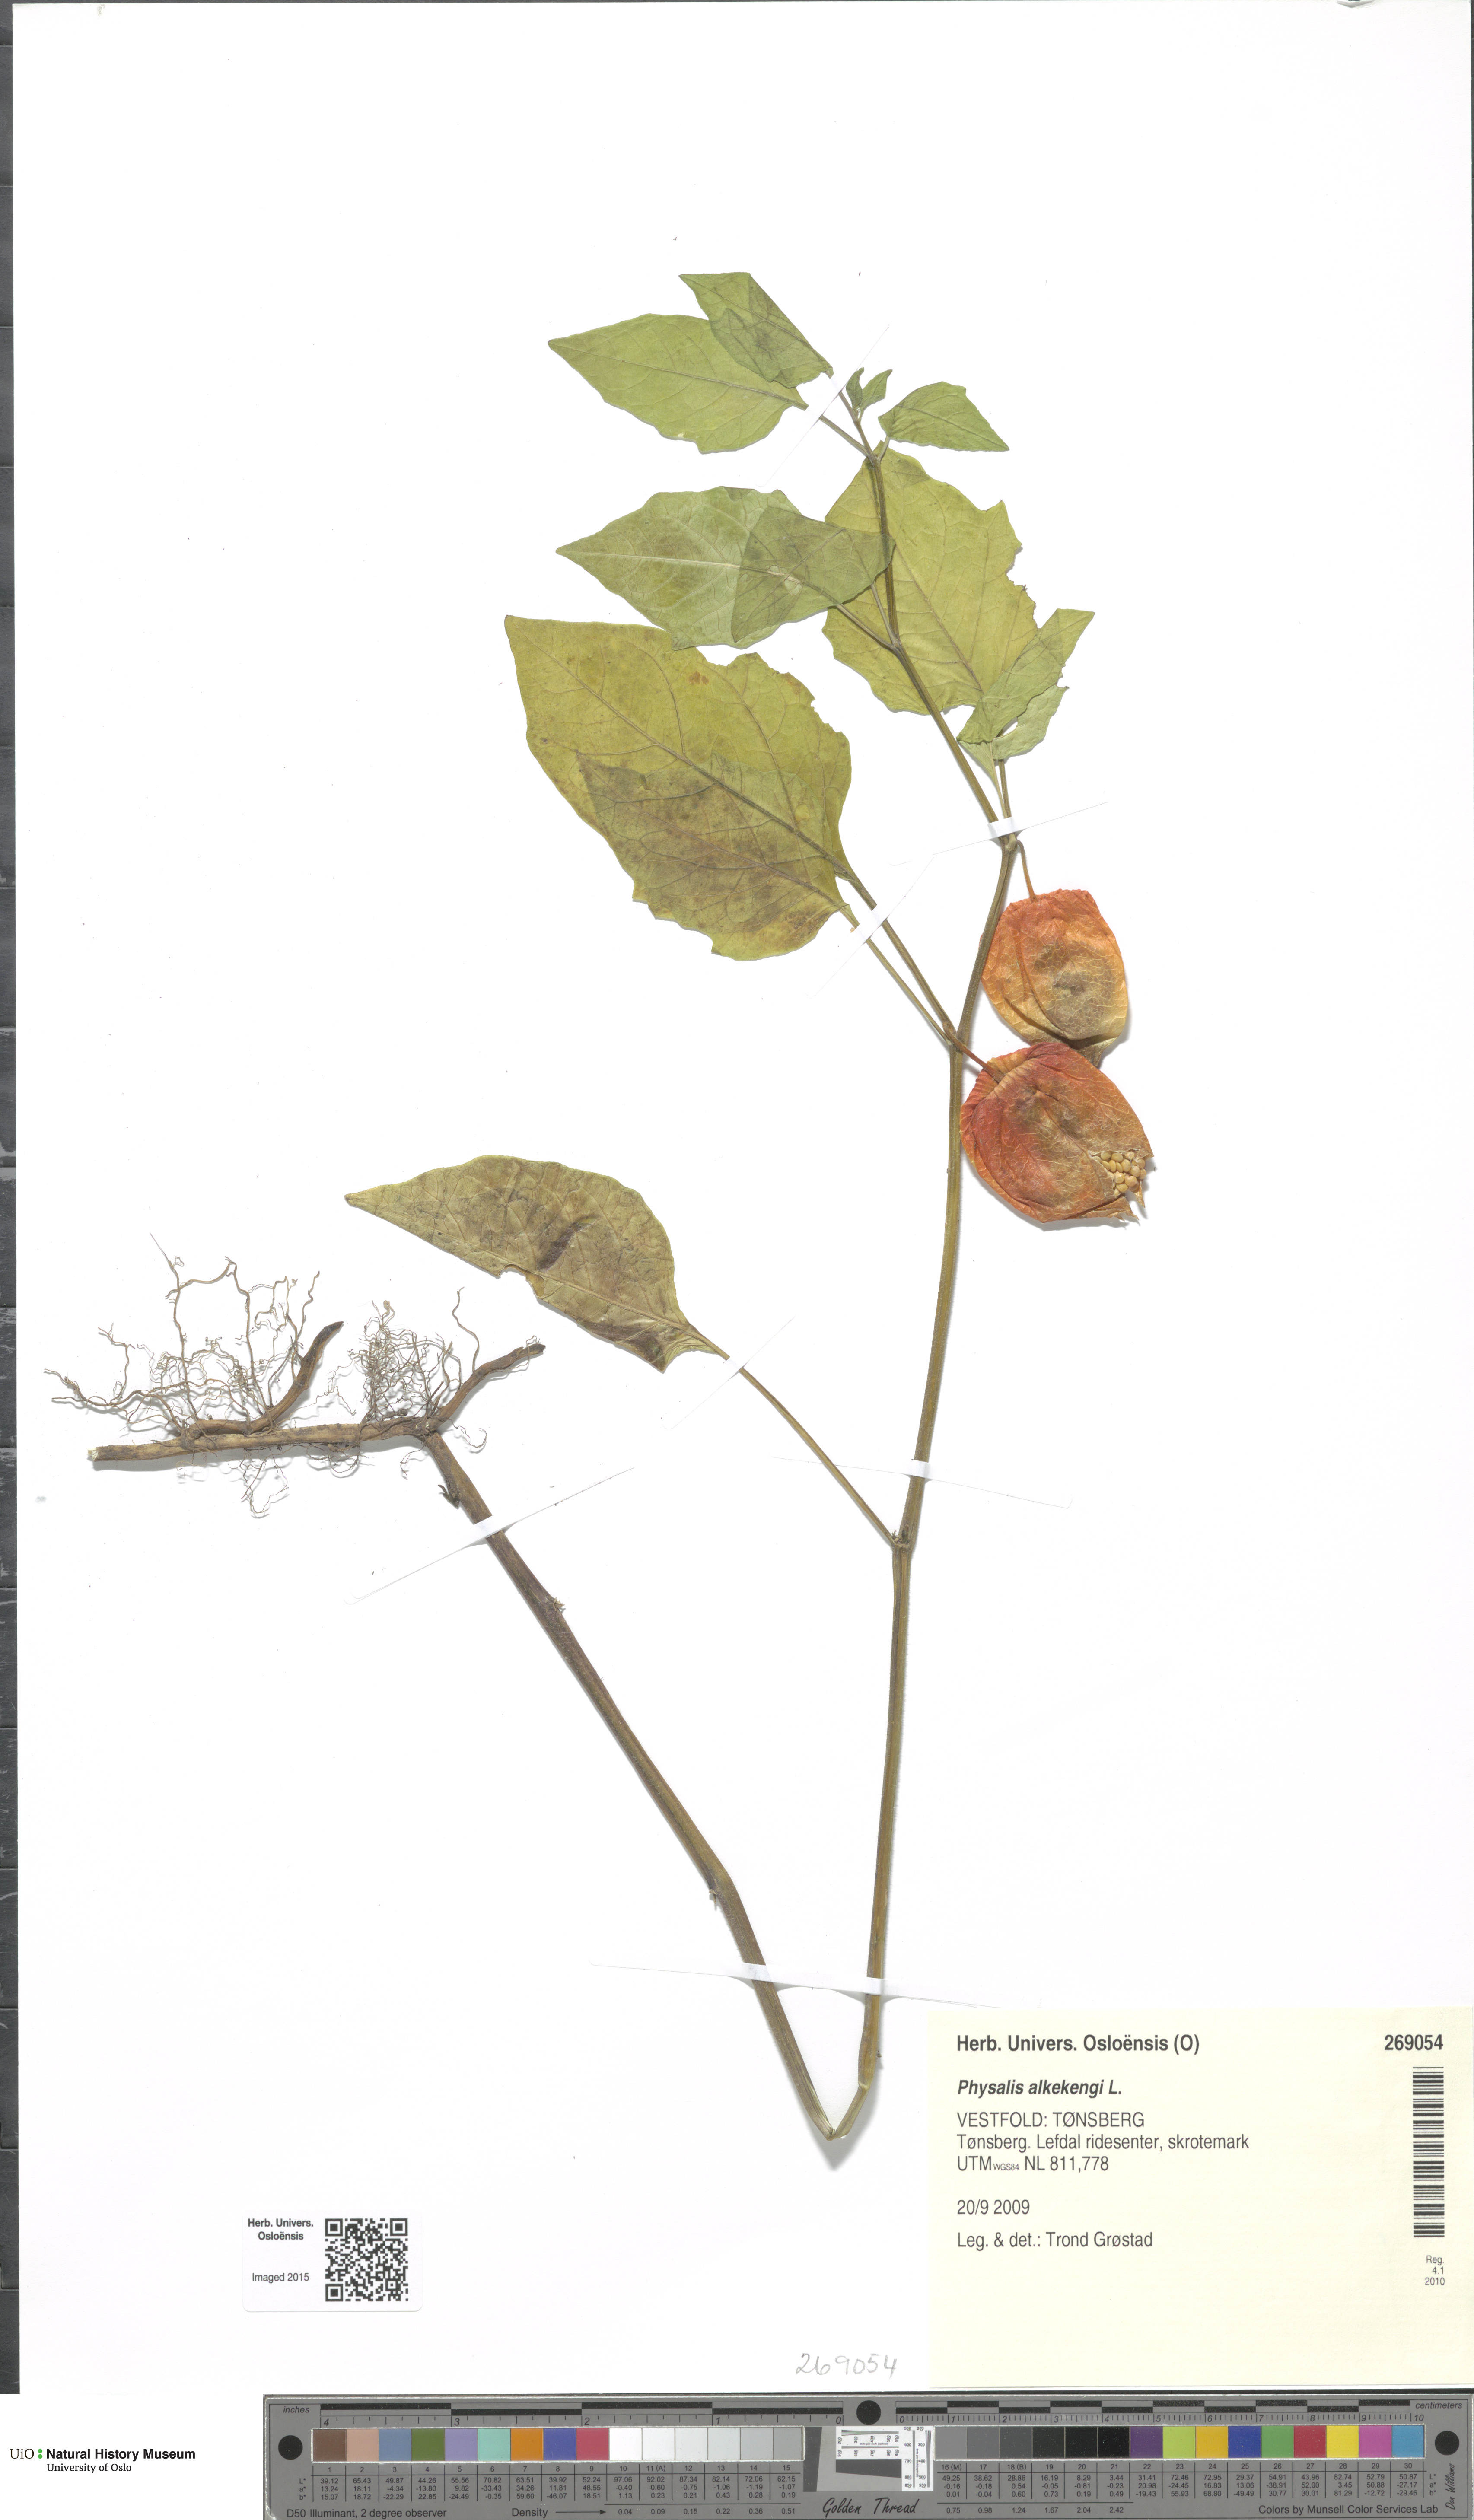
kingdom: Plantae
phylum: Tracheophyta
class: Magnoliopsida
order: Solanales
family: Solanaceae
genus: Alkekengi
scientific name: Alkekengi officinarum
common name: Japanese-lantern
